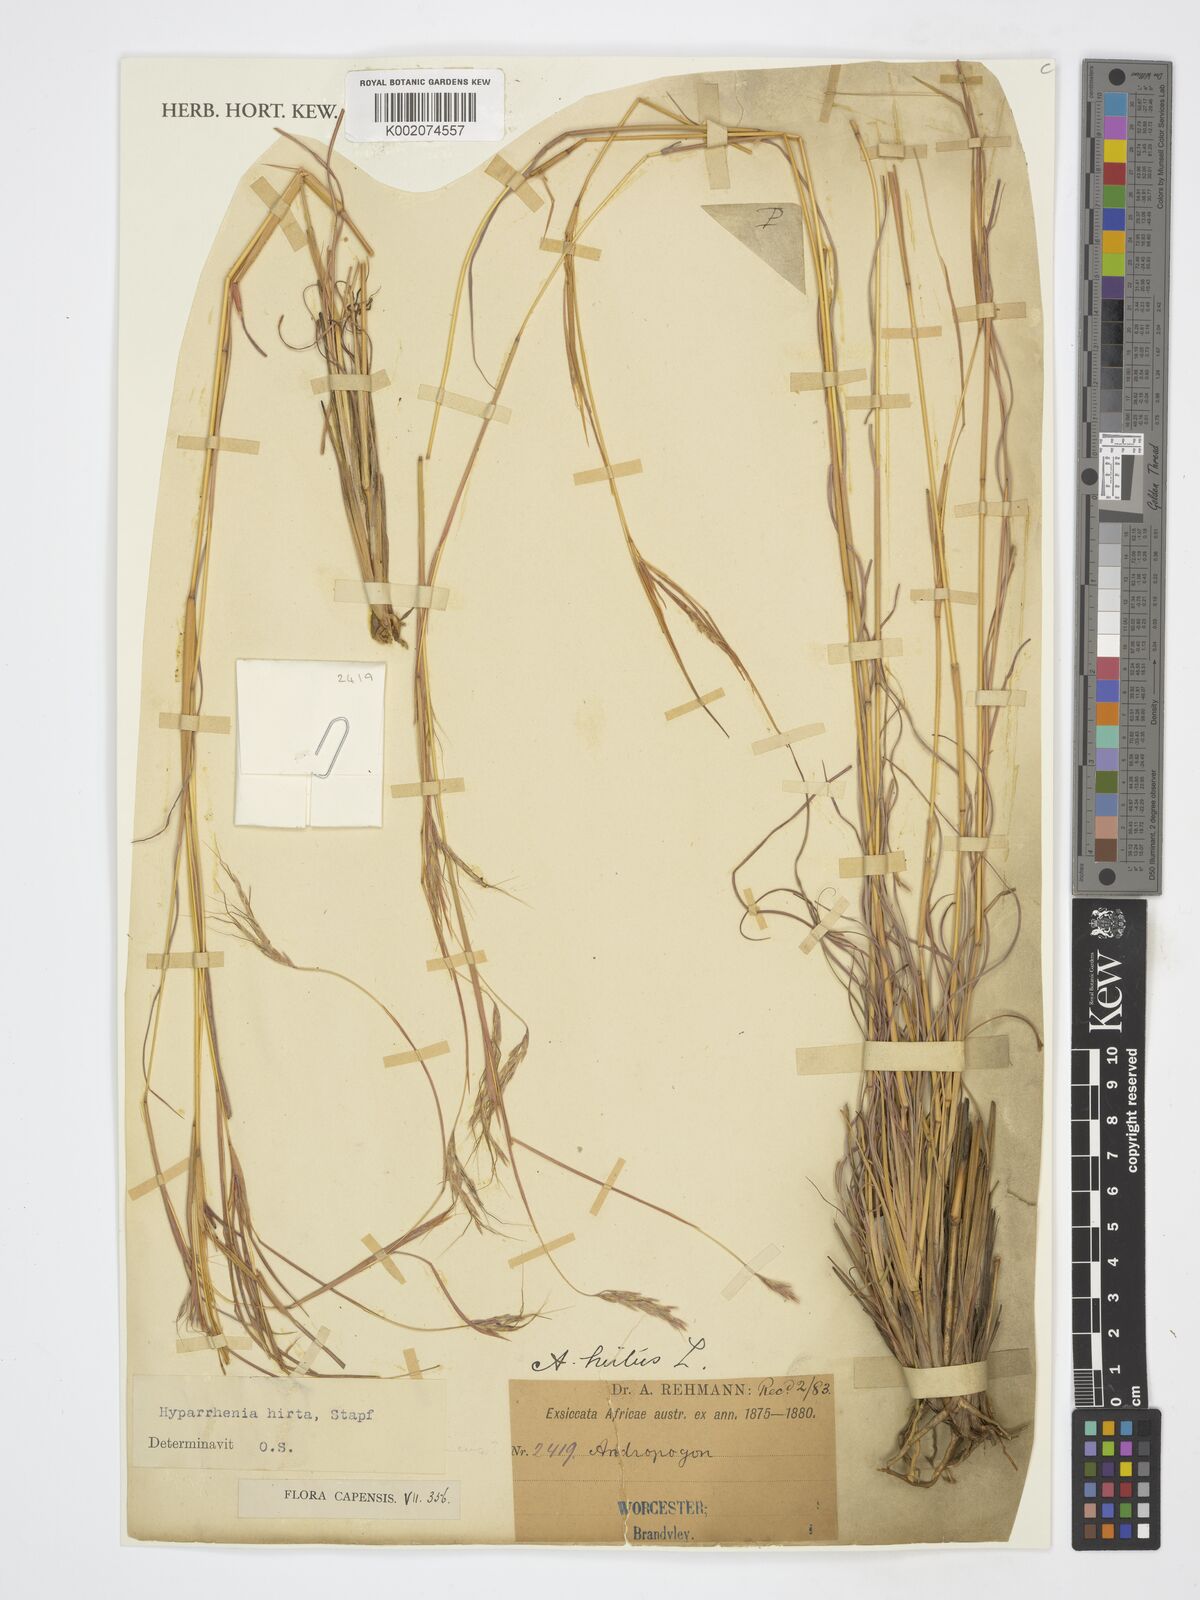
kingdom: Plantae
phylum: Tracheophyta
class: Liliopsida
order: Poales
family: Poaceae
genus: Hyparrhenia
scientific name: Hyparrhenia hirta
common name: Thatching grass
